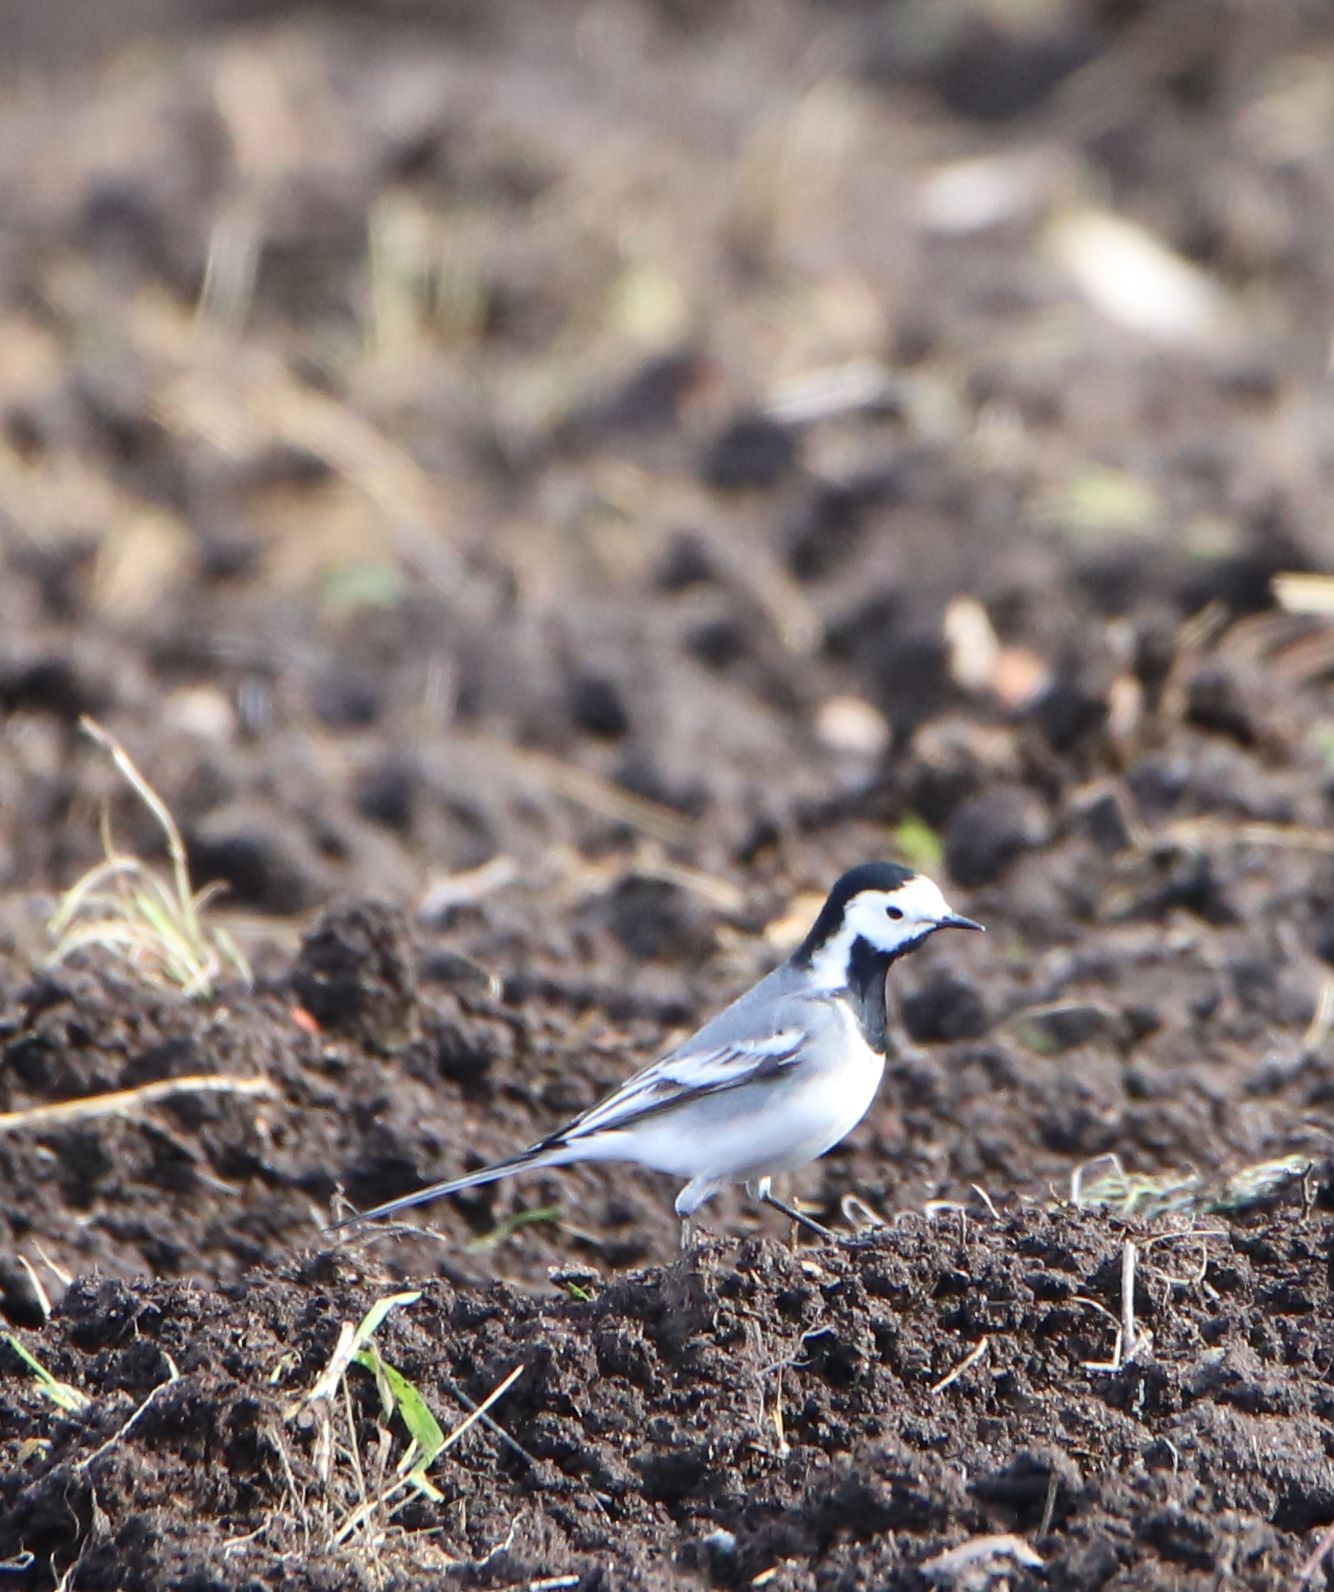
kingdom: Animalia
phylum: Chordata
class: Aves
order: Passeriformes
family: Motacillidae
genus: Motacilla
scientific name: Motacilla alba
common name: White wagtail
